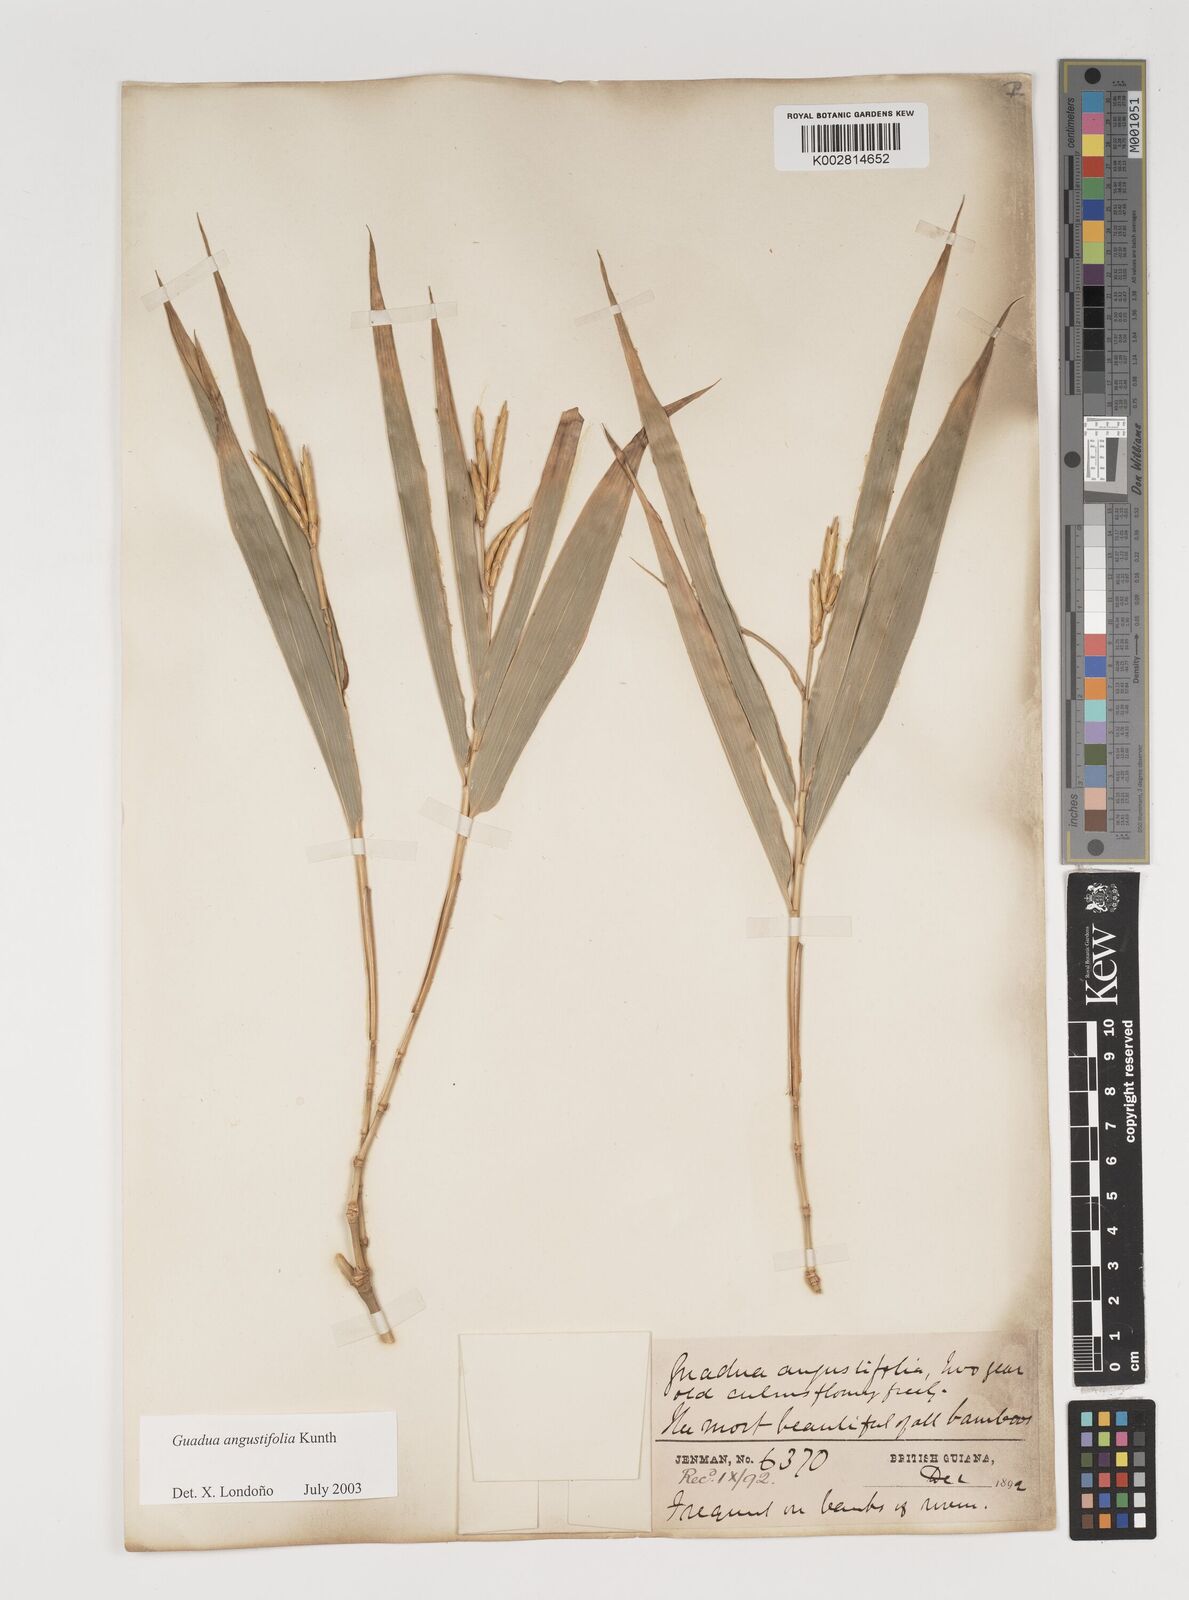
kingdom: Plantae
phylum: Tracheophyta
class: Liliopsida
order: Poales
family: Poaceae
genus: Guadua
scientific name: Guadua angustifolia
